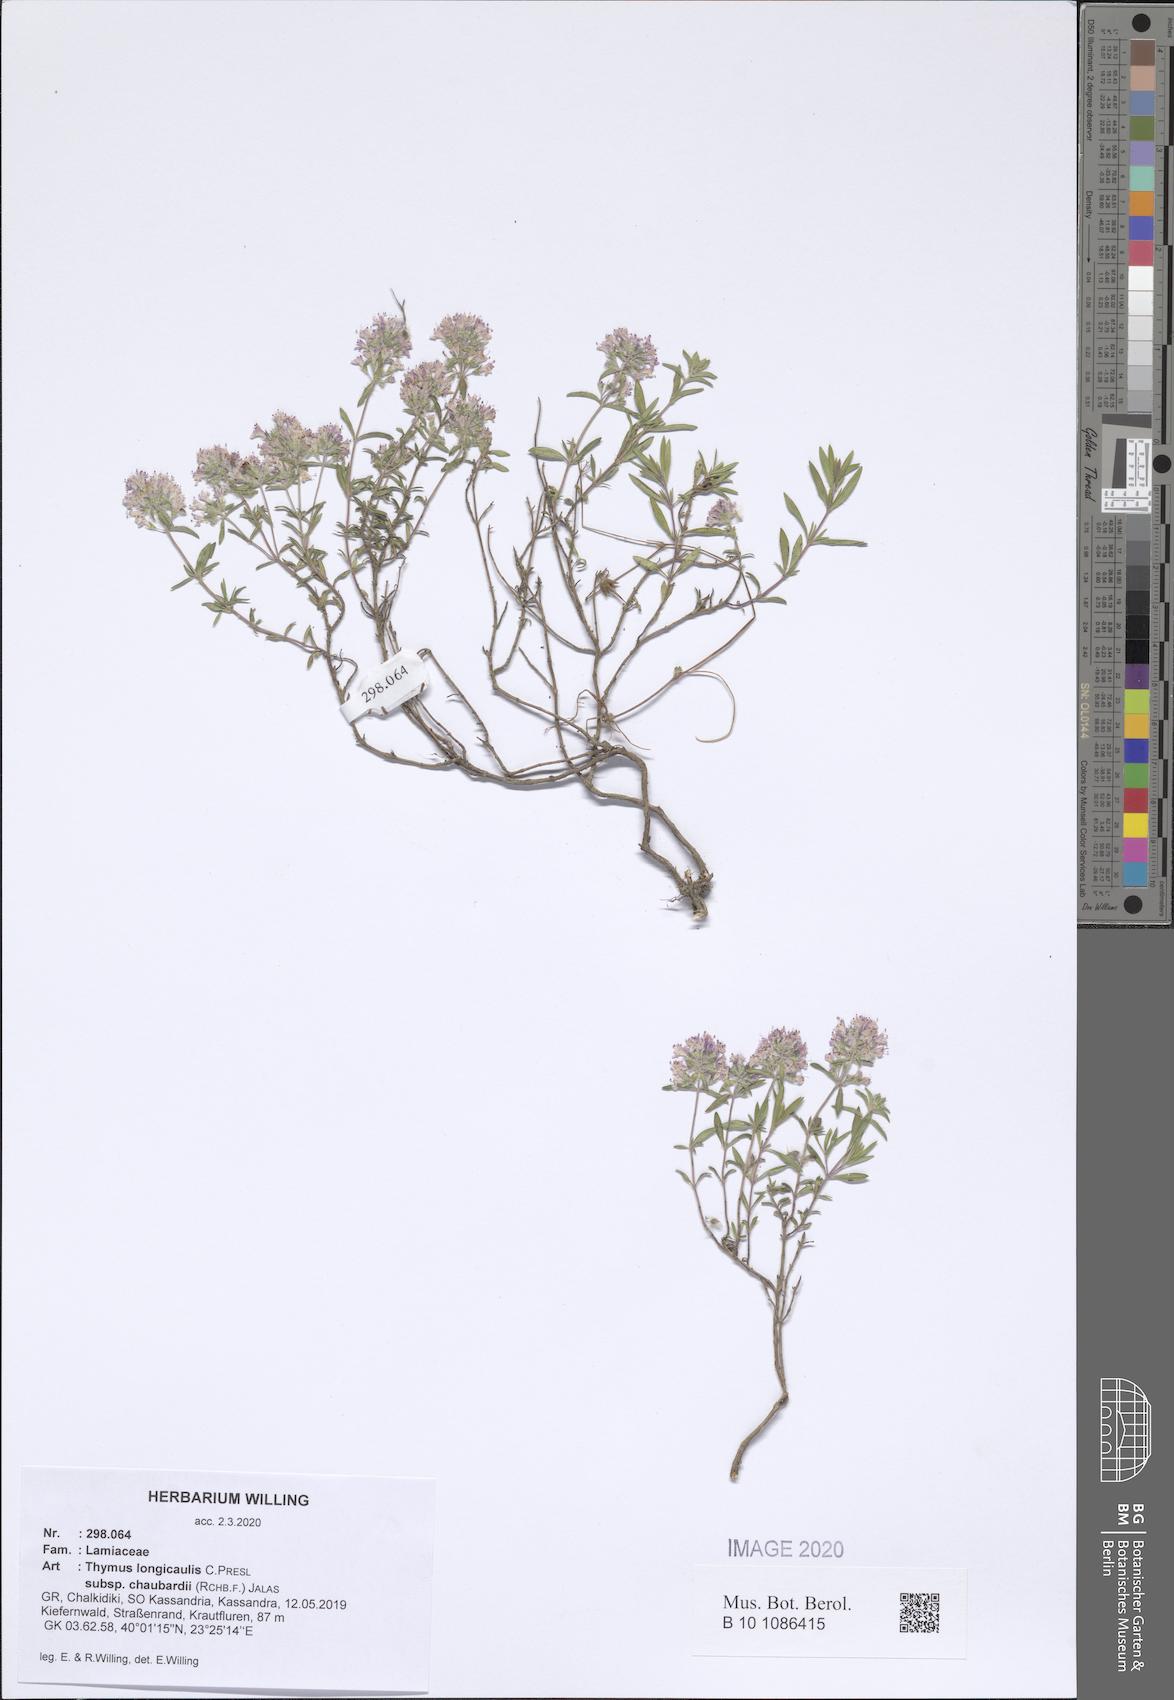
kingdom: Plantae
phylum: Tracheophyta
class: Magnoliopsida
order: Lamiales
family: Lamiaceae
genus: Thymus
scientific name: Thymus longicaulis
